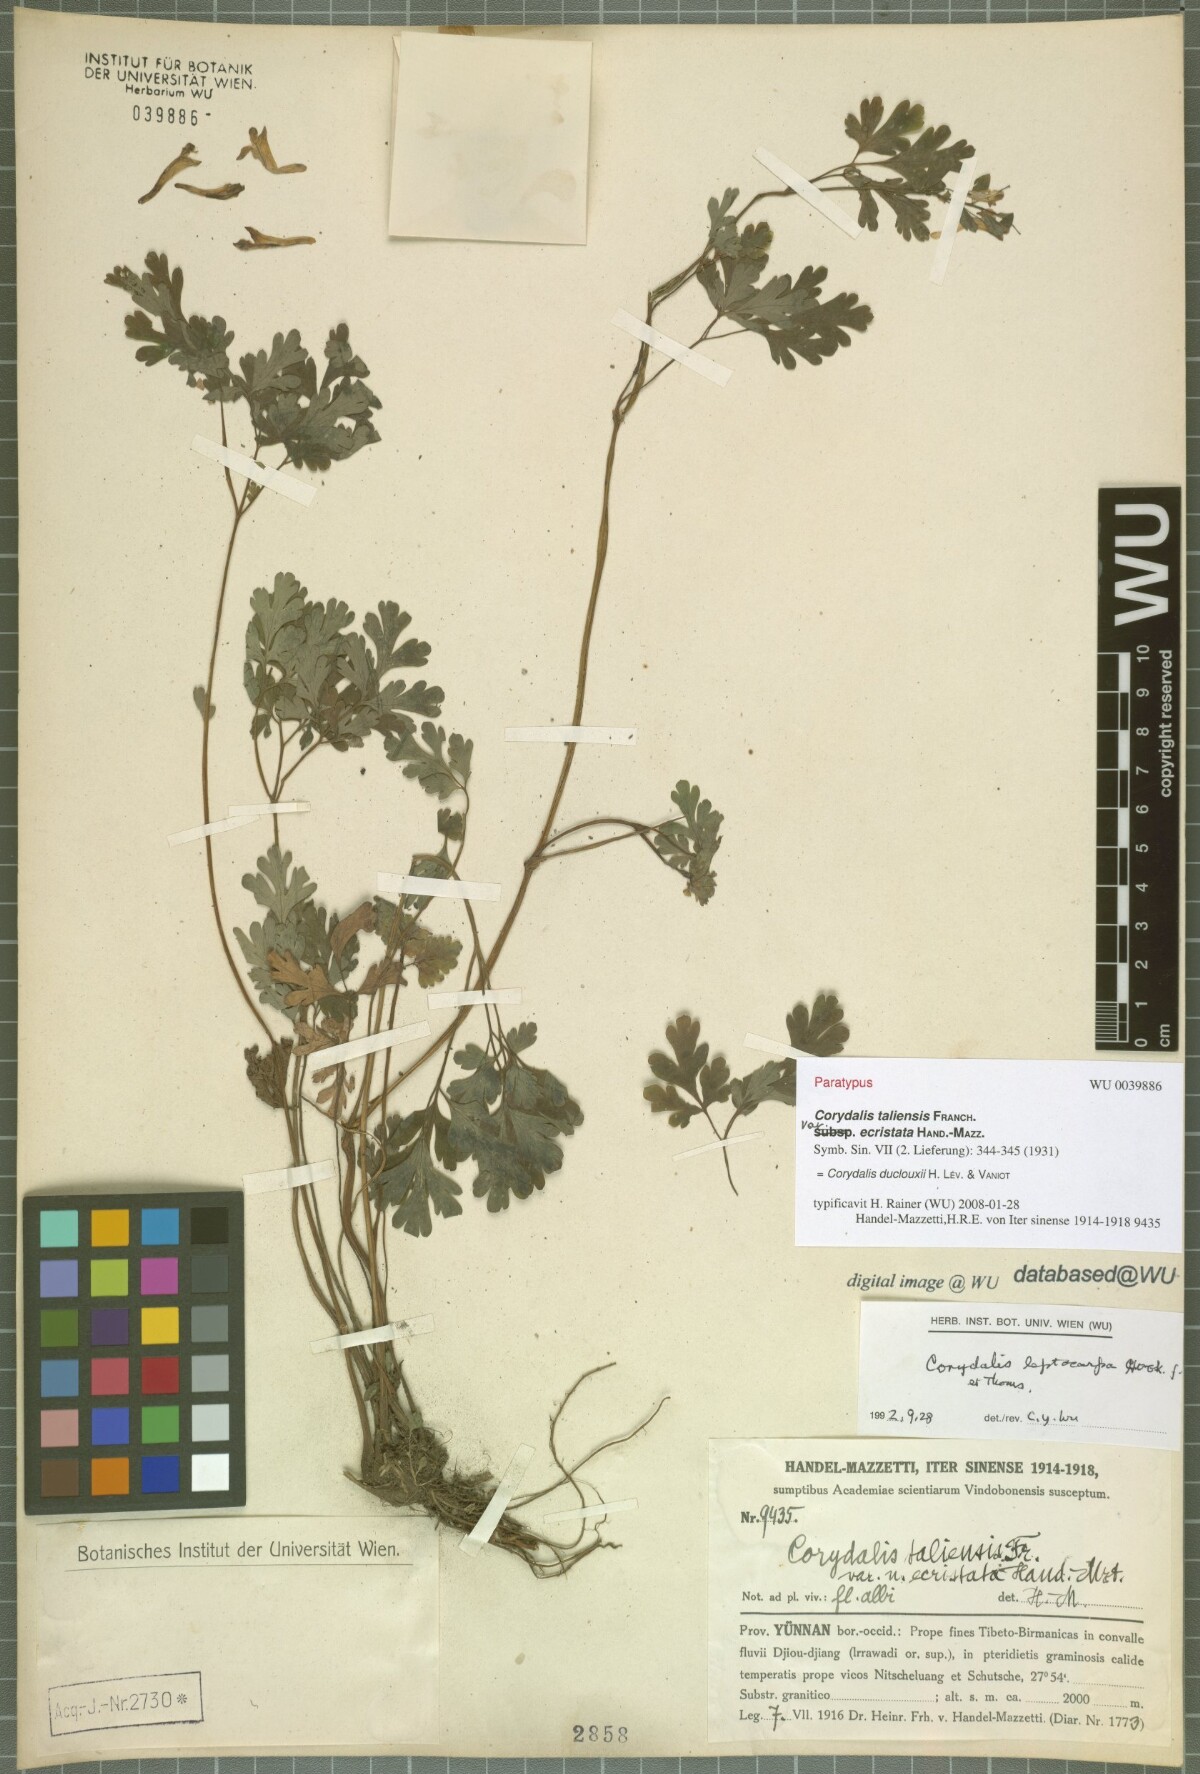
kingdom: Plantae
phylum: Tracheophyta
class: Magnoliopsida
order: Ranunculales
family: Papaveraceae
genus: Corydalis
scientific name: Corydalis duclouxii
